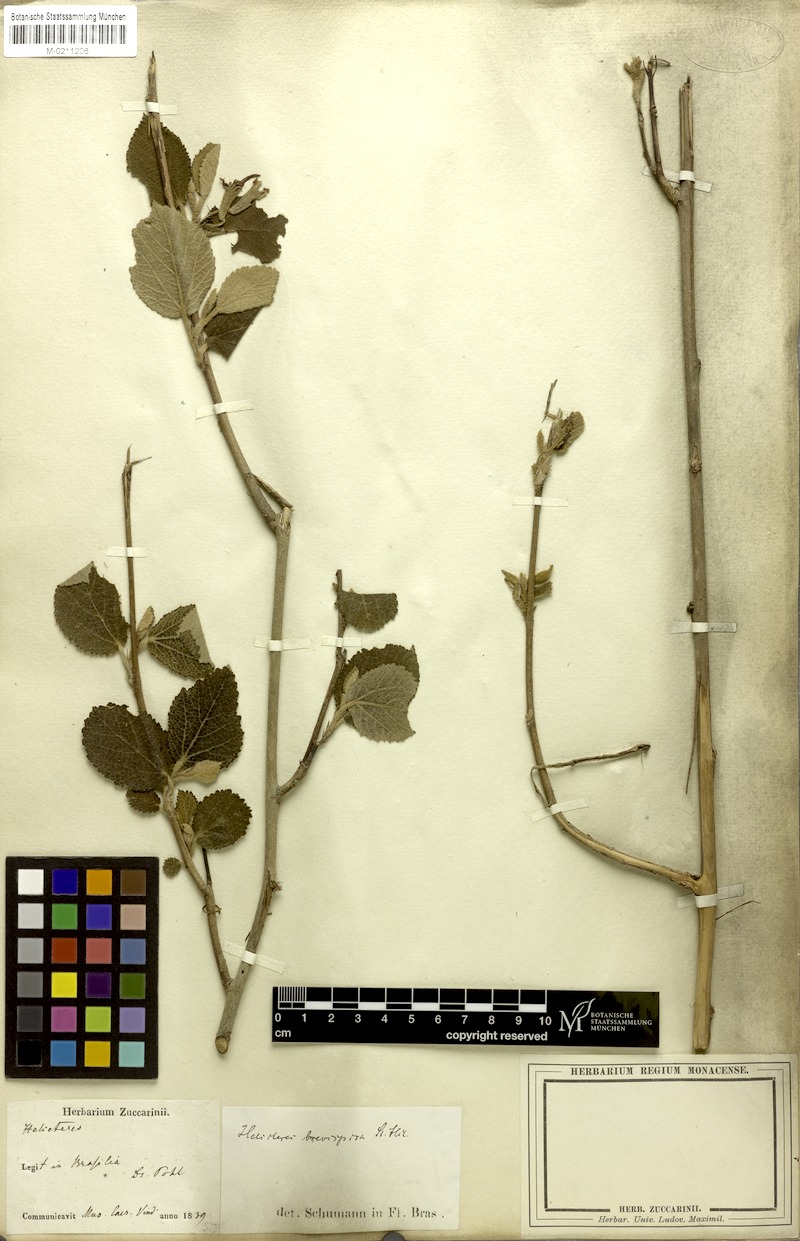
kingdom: Plantae
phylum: Tracheophyta
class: Magnoliopsida
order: Malvales
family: Malvaceae
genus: Helicteres
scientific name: Helicteres brevispira
